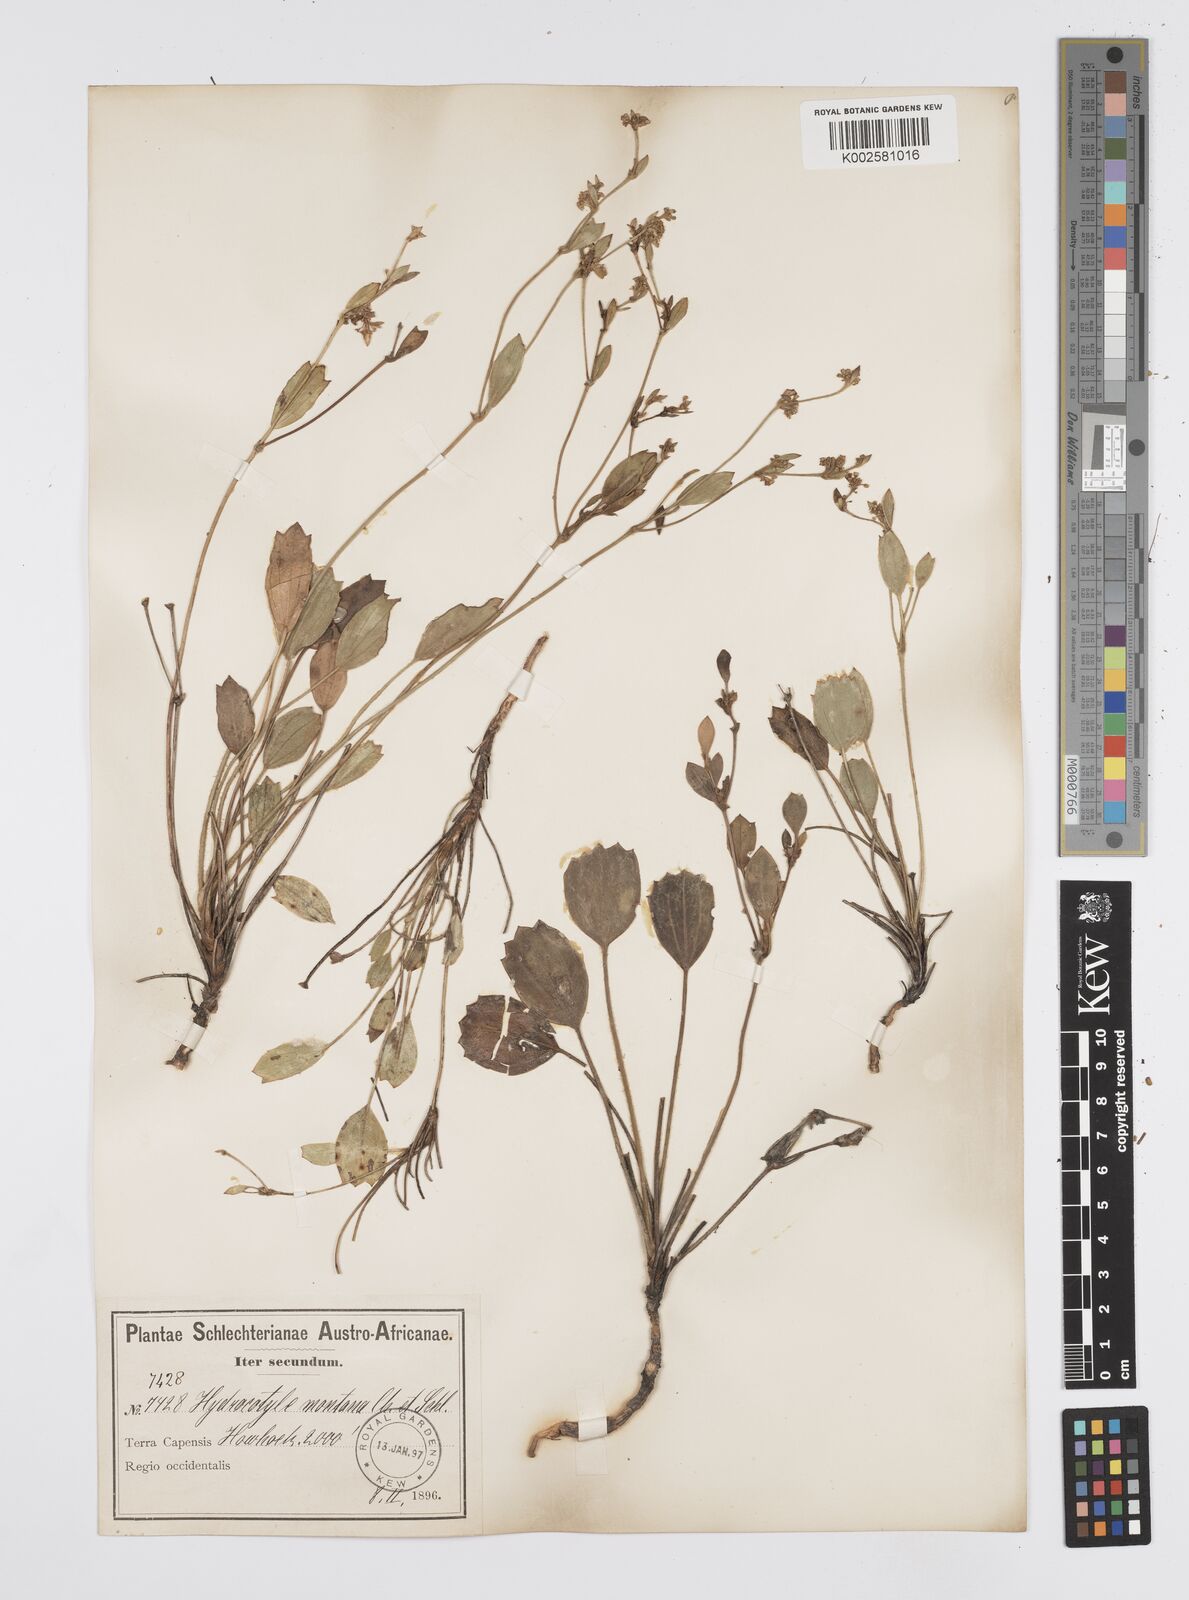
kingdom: Plantae
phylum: Tracheophyta
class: Magnoliopsida
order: Apiales
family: Apiaceae
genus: Centella
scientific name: Centella difformis
